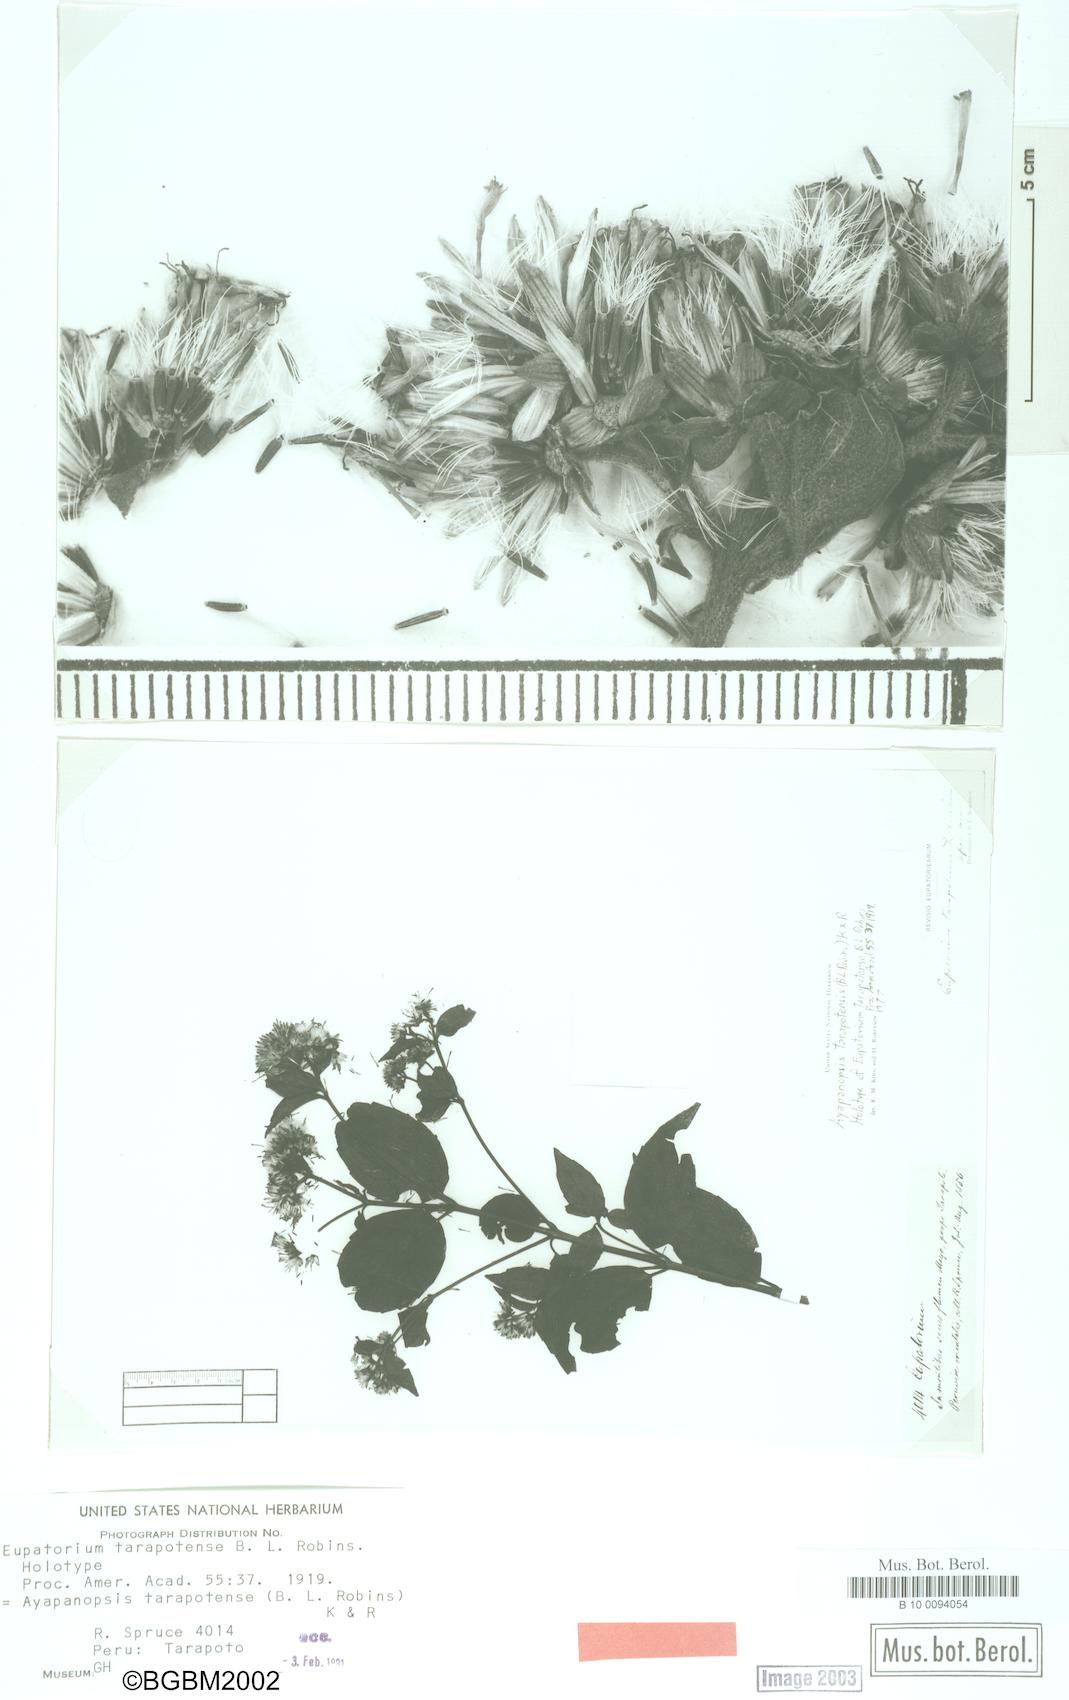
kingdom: Plantae
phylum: Tracheophyta
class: Magnoliopsida
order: Asterales
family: Asteraceae
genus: Ayapanopsis
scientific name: Ayapanopsis tarapotensis
